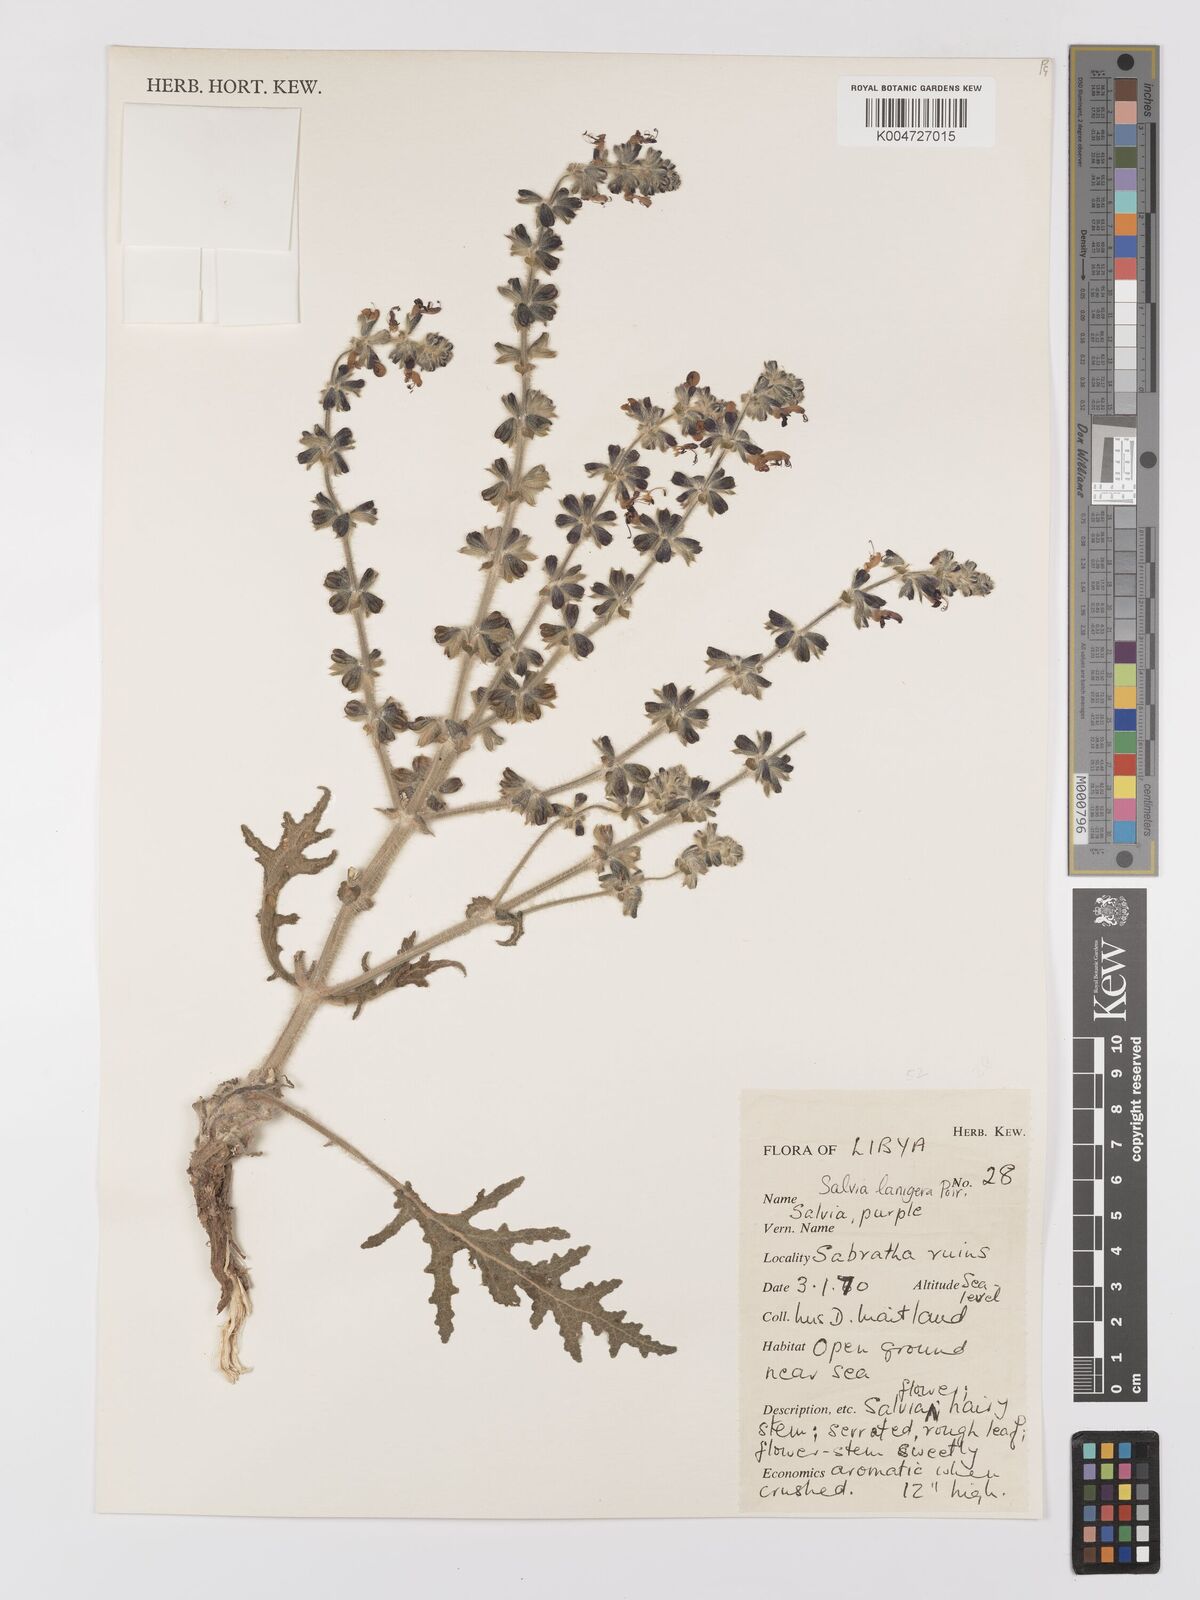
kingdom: Plantae
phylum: Tracheophyta
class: Magnoliopsida
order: Lamiales
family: Lamiaceae
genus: Salvia
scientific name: Salvia lanigera
